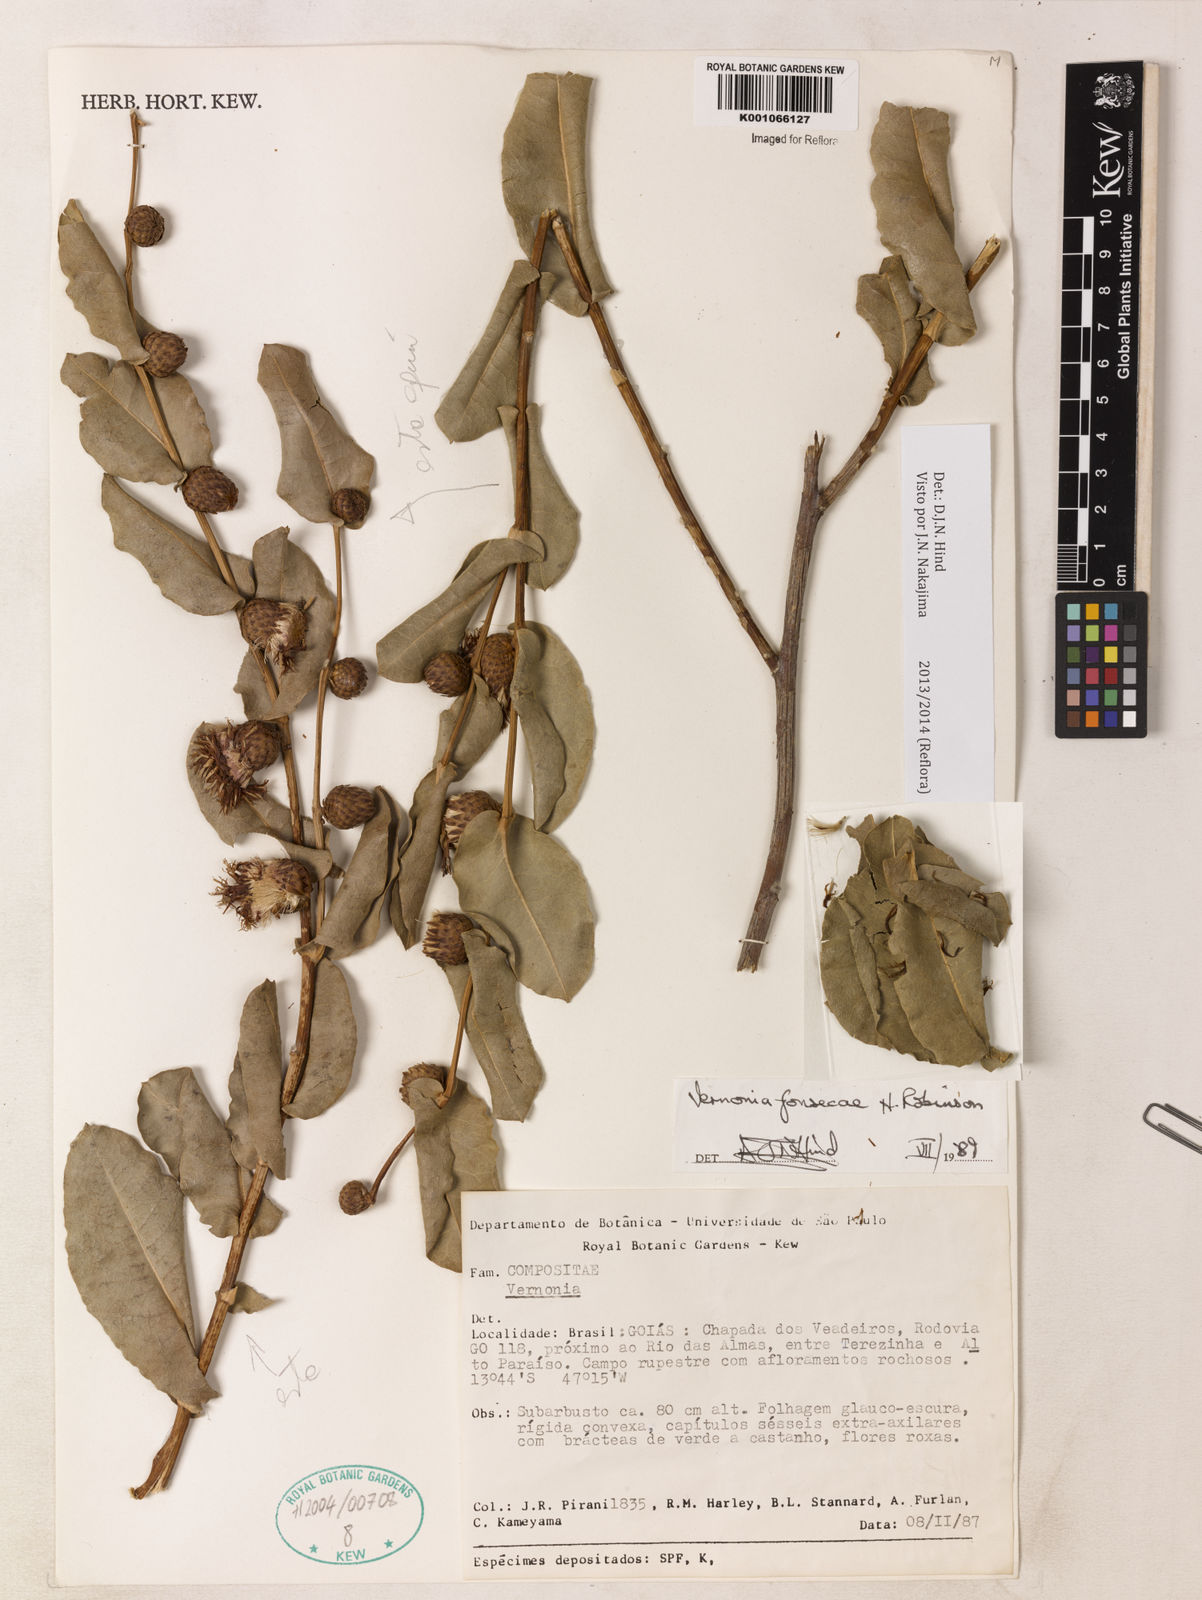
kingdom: Plantae
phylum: Tracheophyta
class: Magnoliopsida
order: Asterales
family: Asteraceae
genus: Lessingianthus
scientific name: Lessingianthus fonsecae
